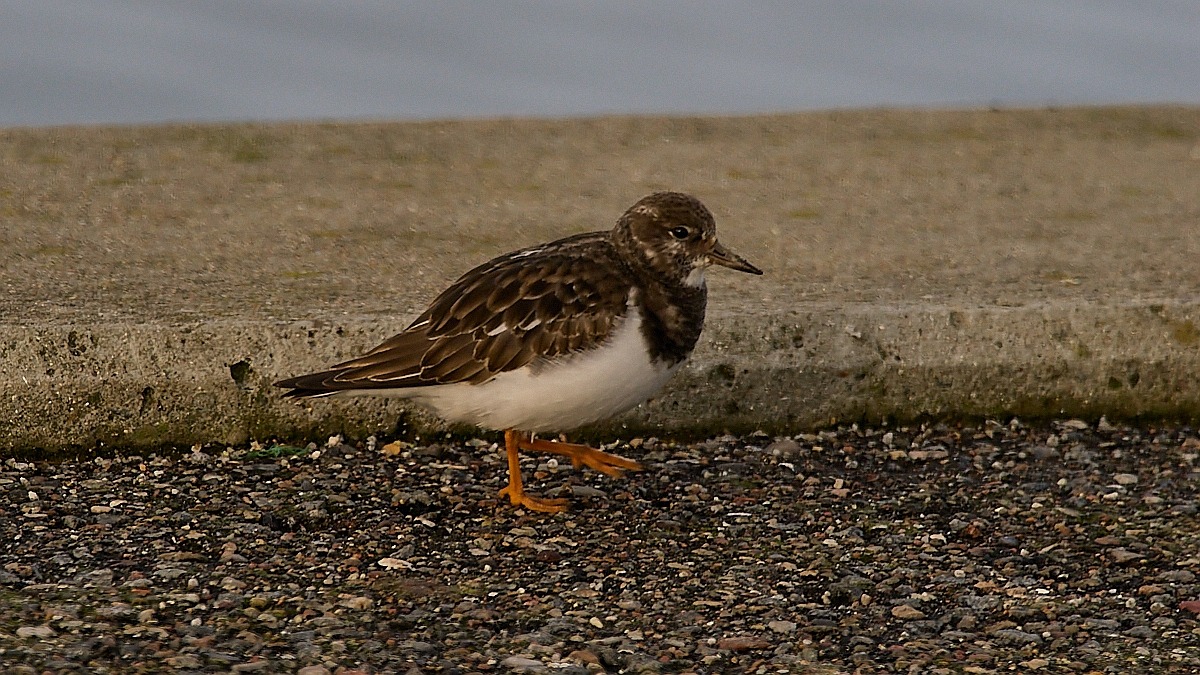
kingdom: Animalia
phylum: Chordata
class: Aves
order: Charadriiformes
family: Scolopacidae
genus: Arenaria
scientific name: Arenaria interpres
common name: Stenvender
